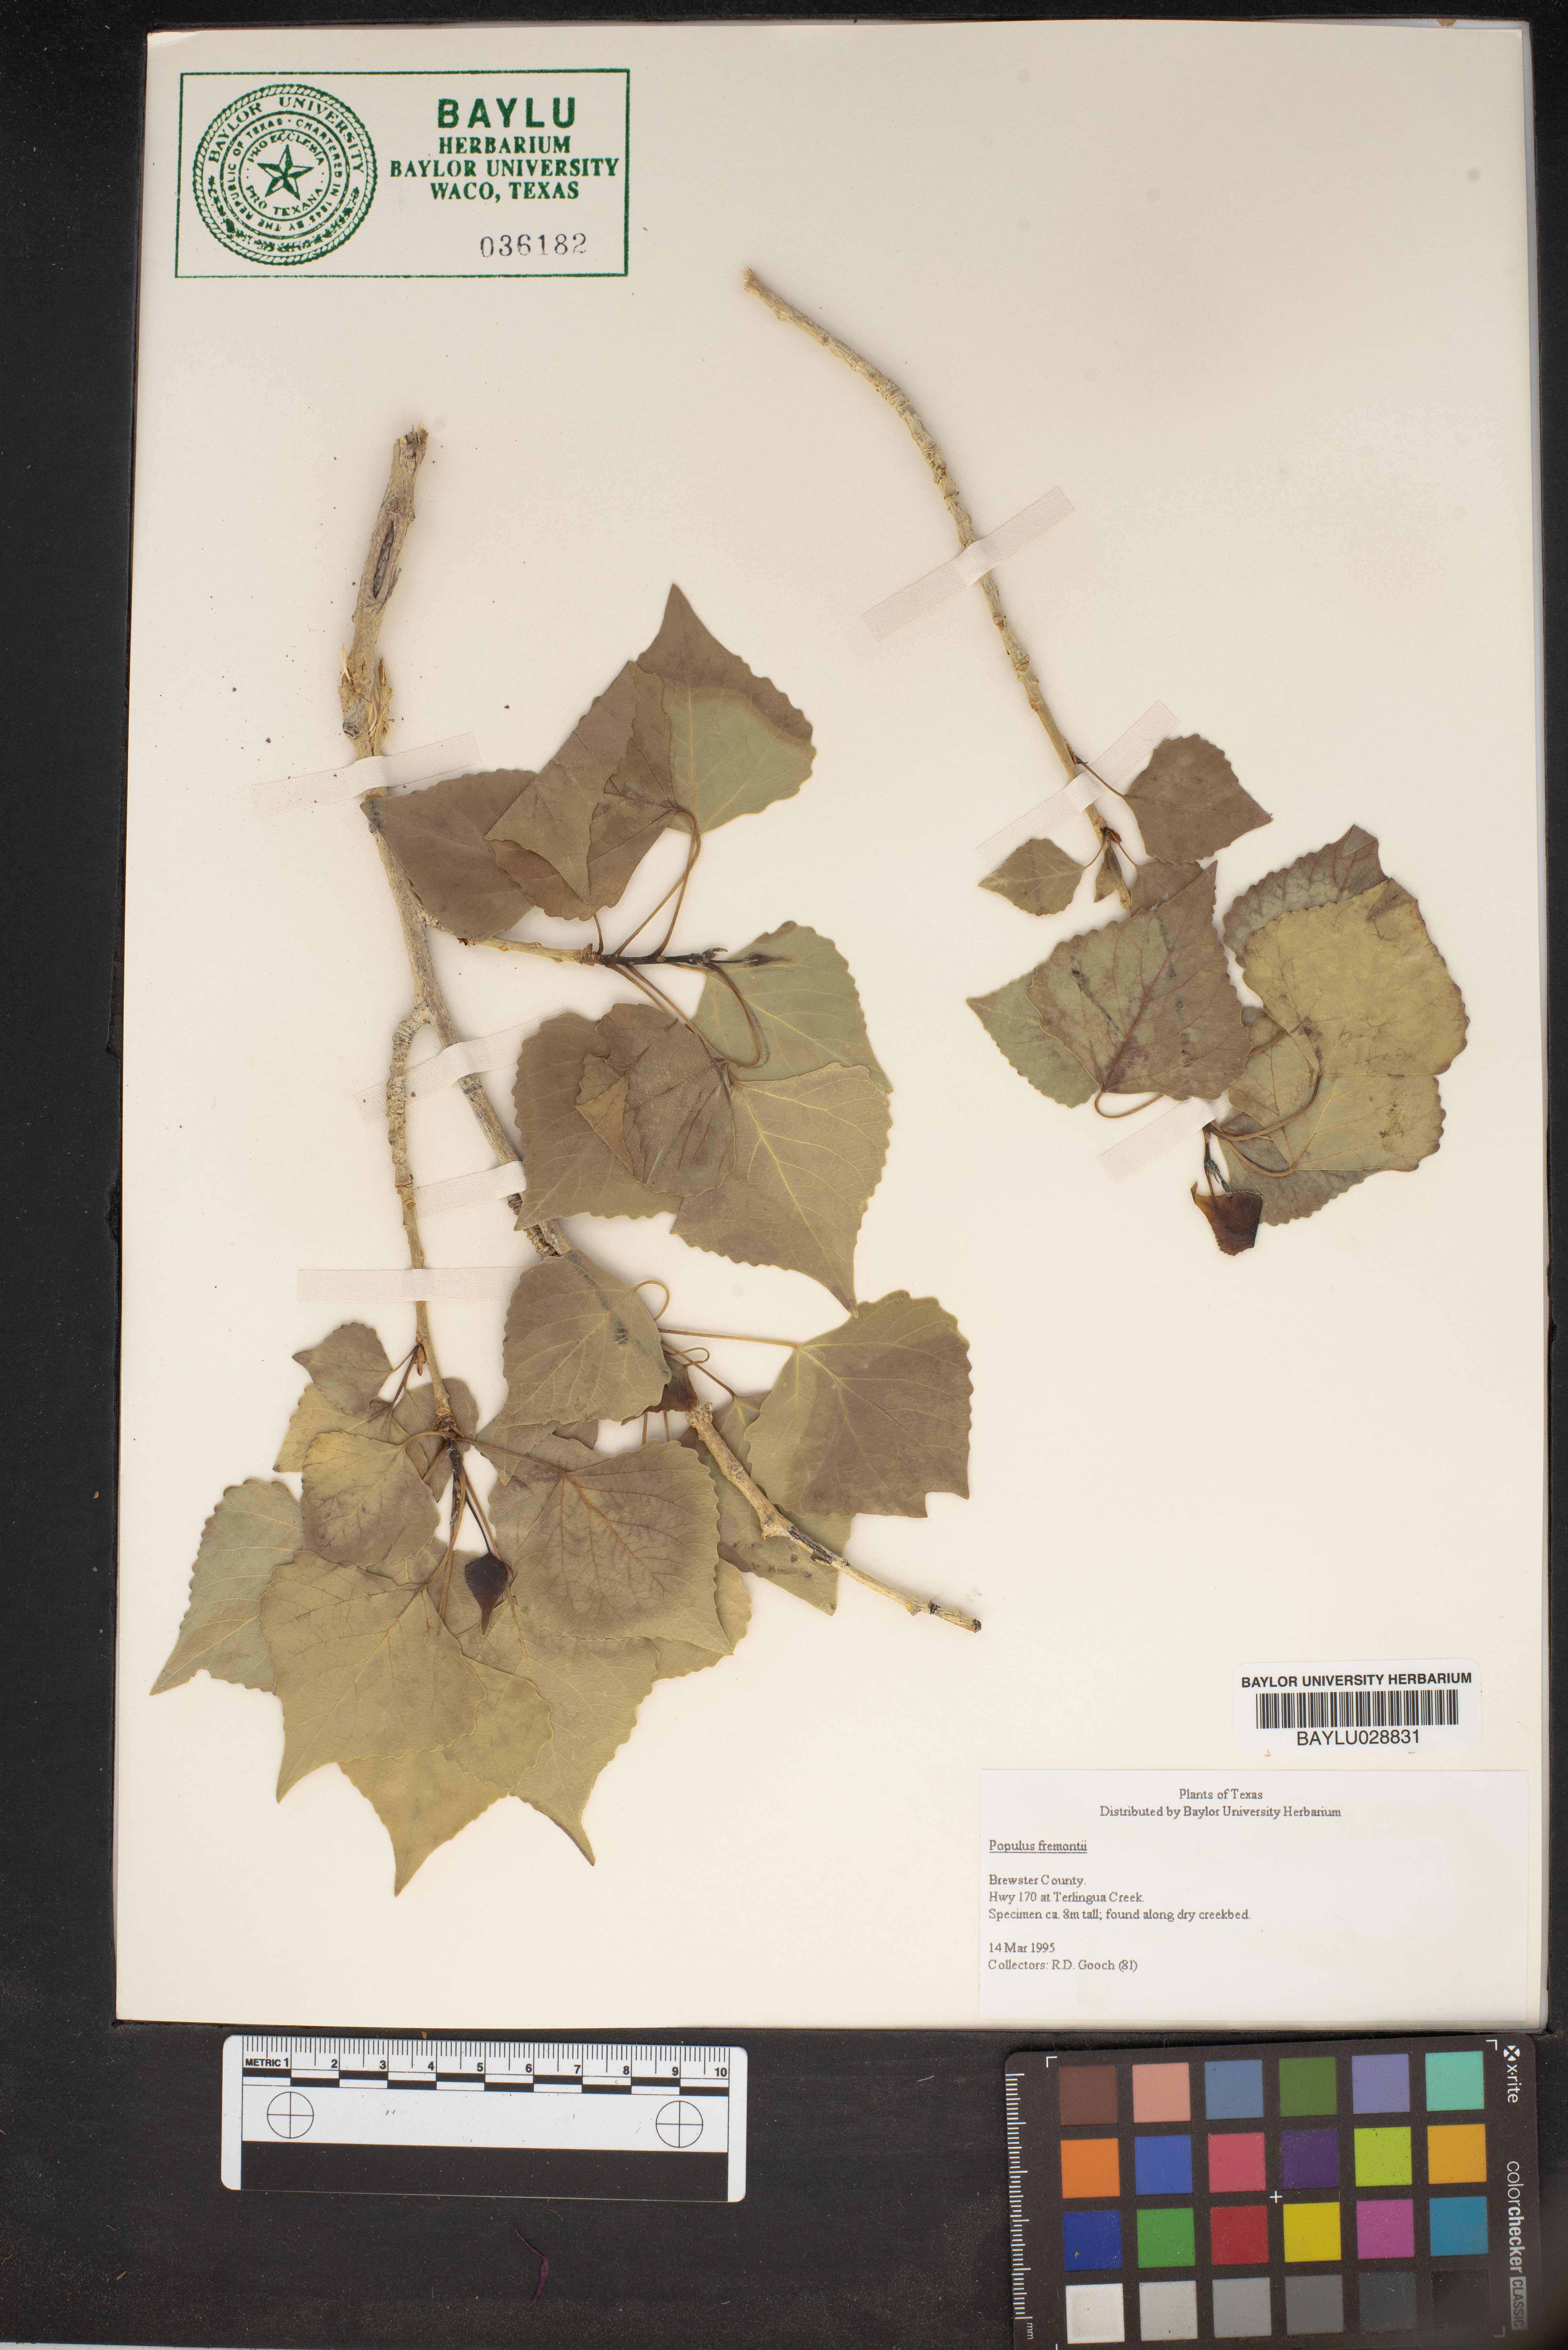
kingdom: Plantae
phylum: Tracheophyta
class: Magnoliopsida
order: Malpighiales
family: Salicaceae
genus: Populus
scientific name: Populus fremontii
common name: Fremont's cottonwood
